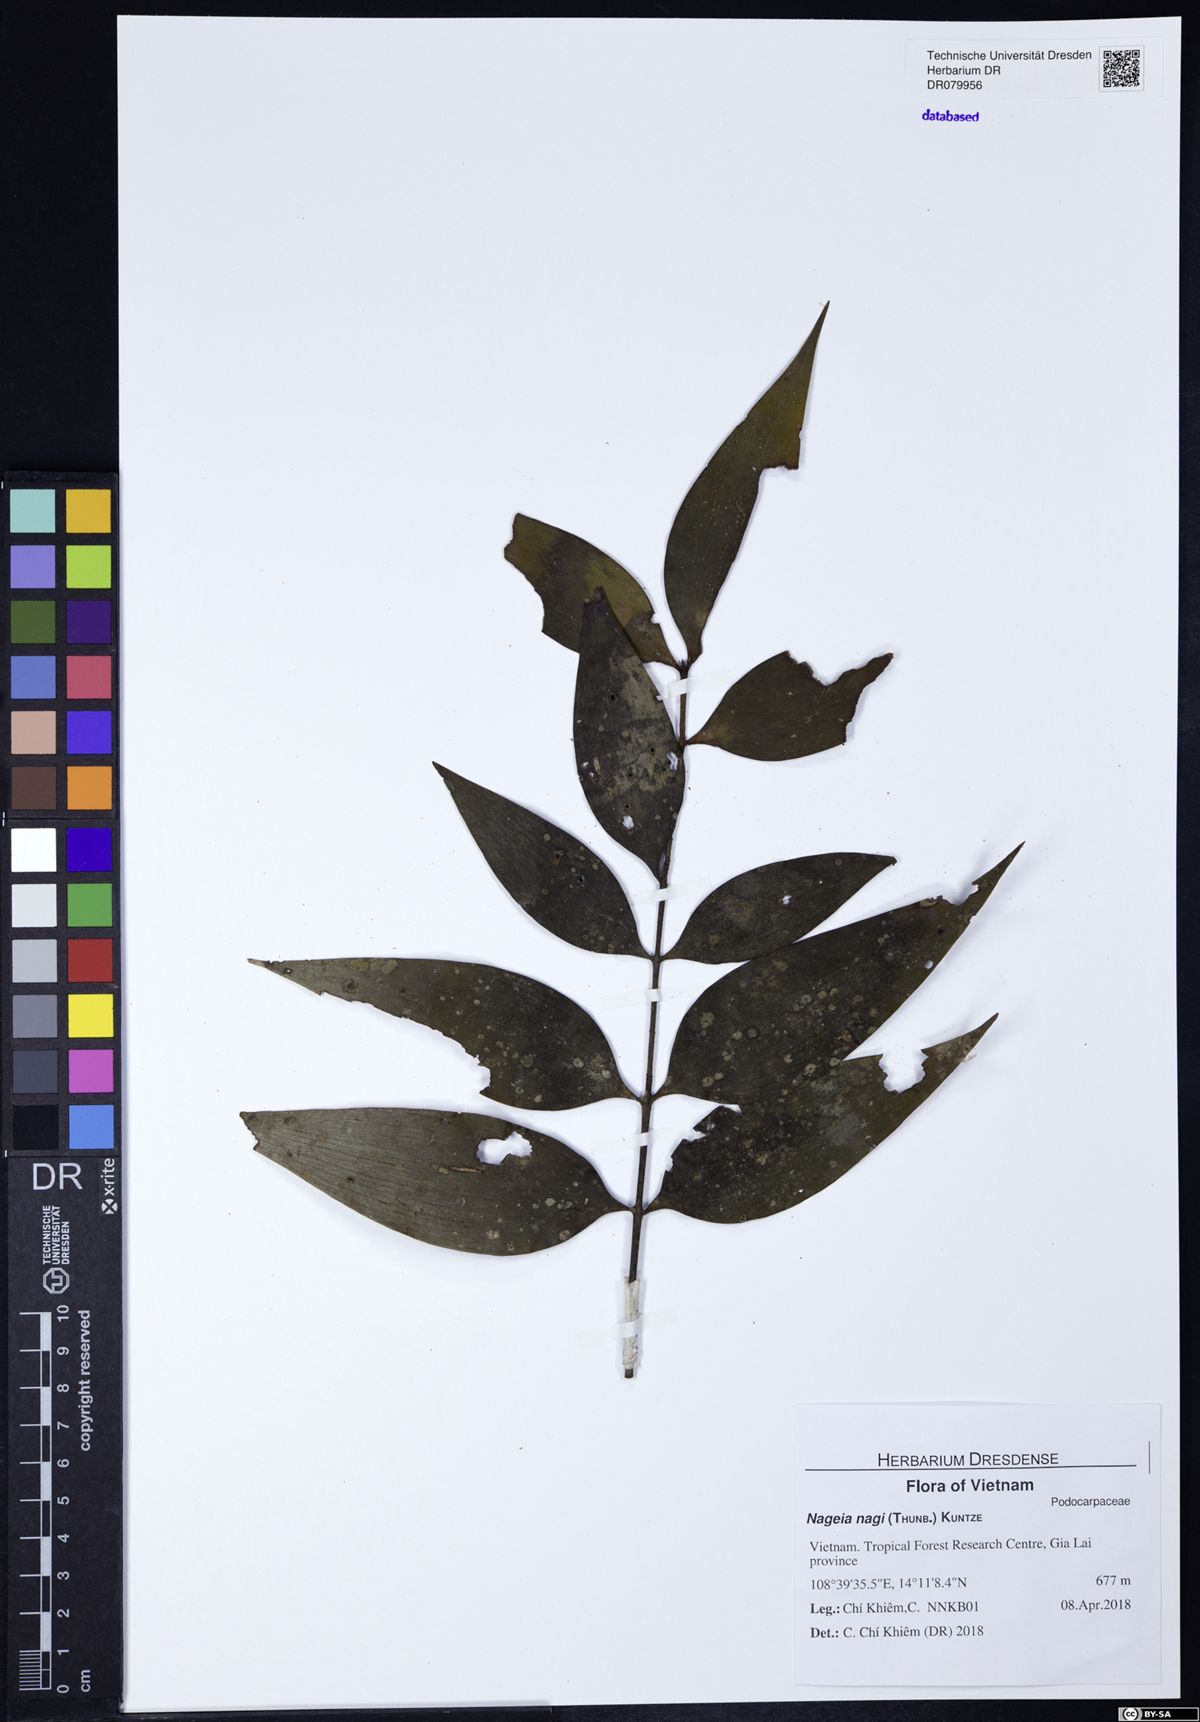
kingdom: Plantae
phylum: Tracheophyta
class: Pinopsida
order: Pinales
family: Podocarpaceae
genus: Nageia
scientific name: Nageia nagi
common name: Kaphal
